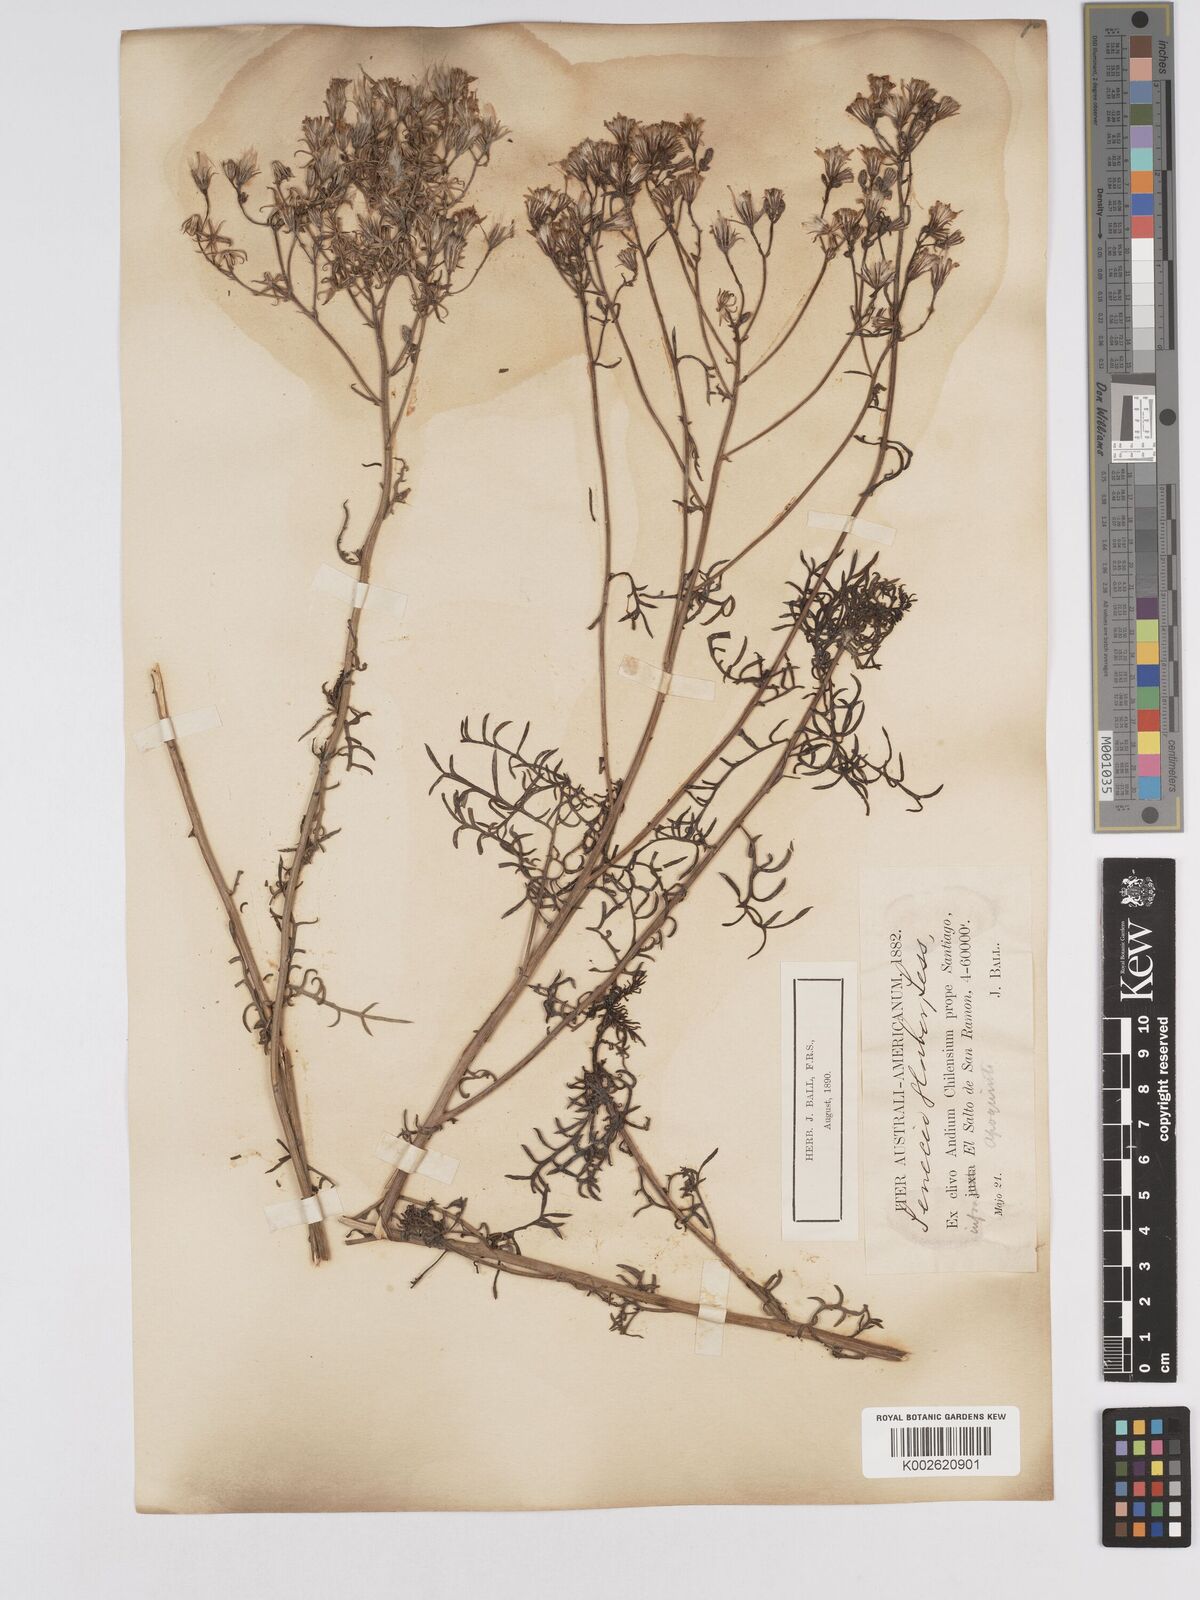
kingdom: Plantae
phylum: Tracheophyta
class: Magnoliopsida
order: Asterales
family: Asteraceae
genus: Senecio
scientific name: Senecio glaber
